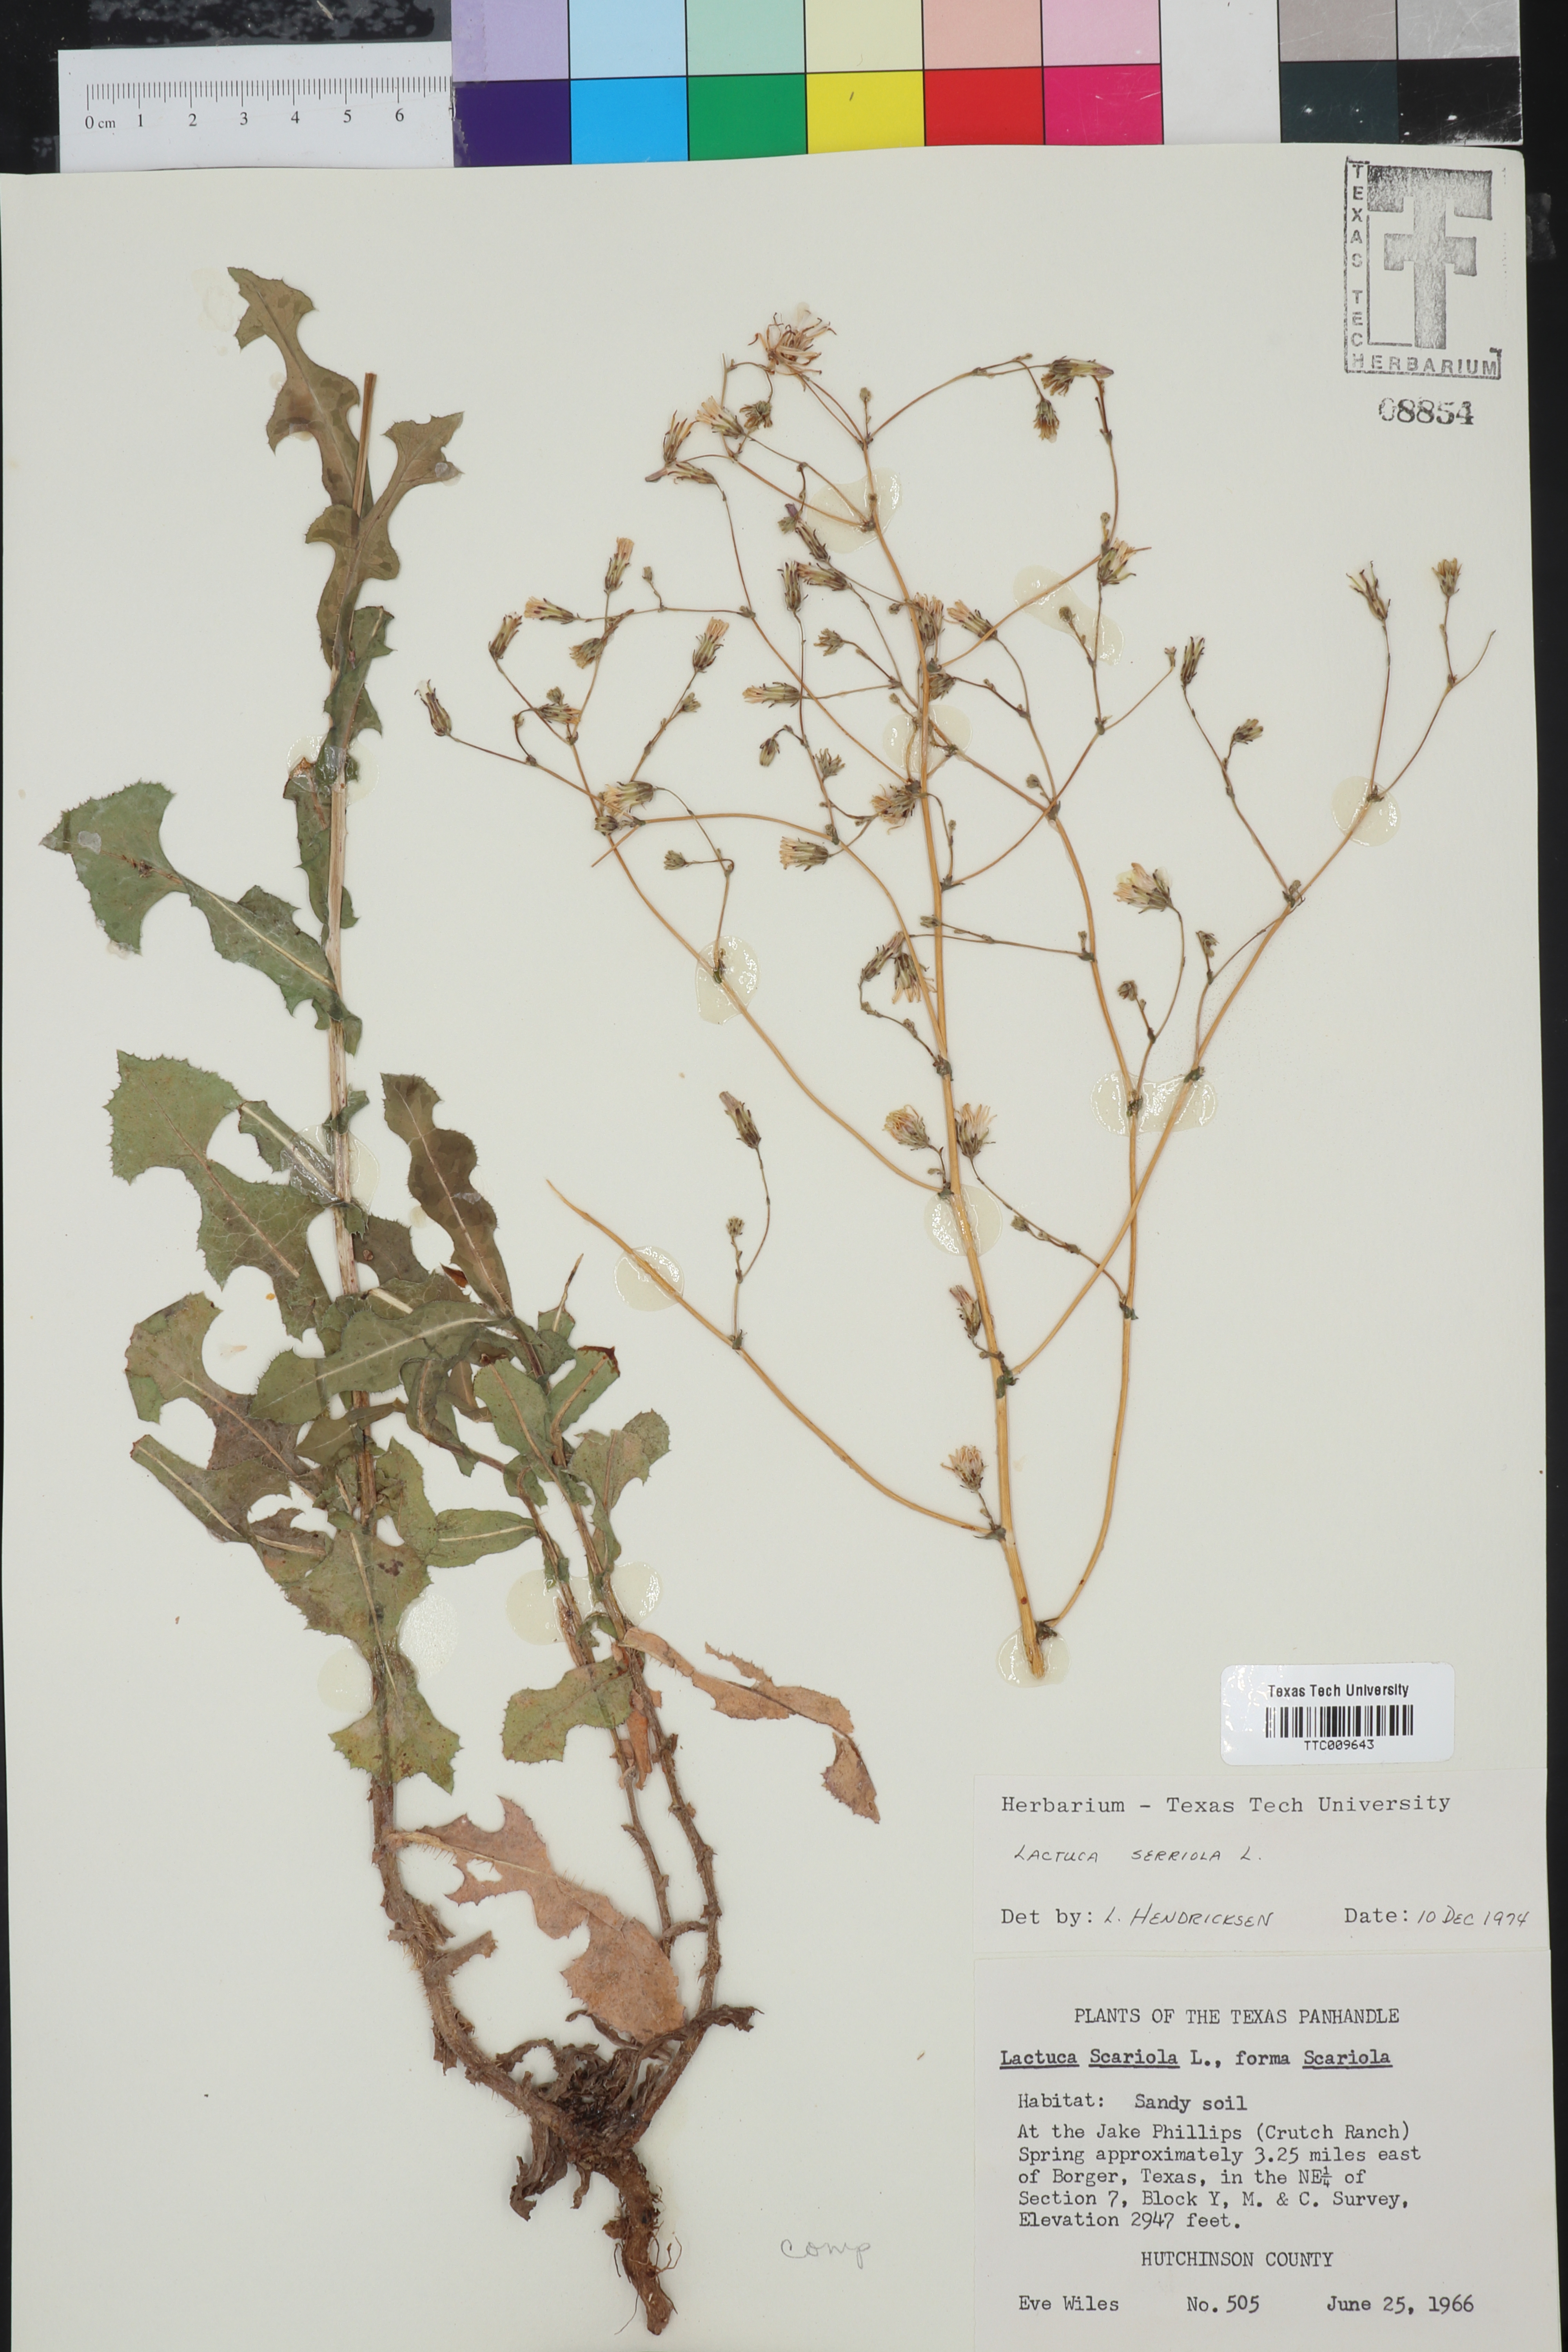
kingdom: Plantae
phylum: Tracheophyta
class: Magnoliopsida
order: Asterales
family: Asteraceae
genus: Lactuca
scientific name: Lactuca serriola
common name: Prickly lettuce
